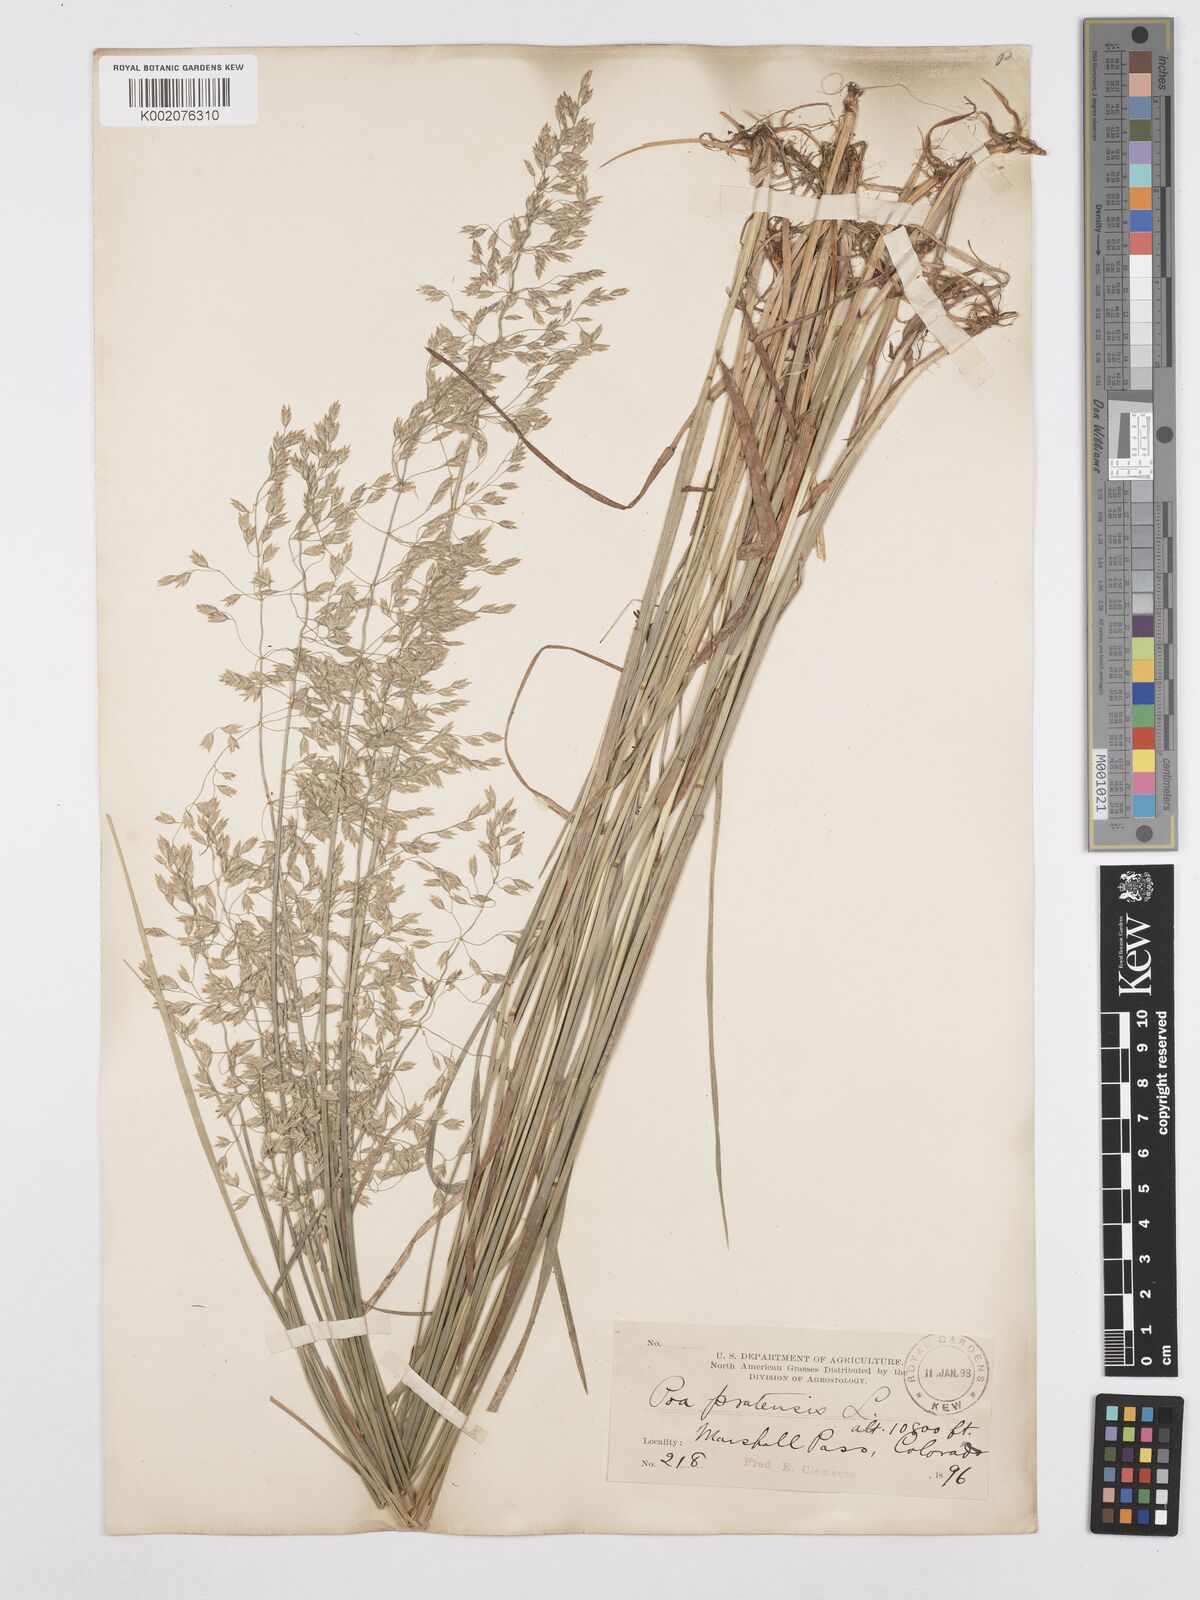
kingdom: Plantae
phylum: Tracheophyta
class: Liliopsida
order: Poales
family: Poaceae
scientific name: Poaceae
